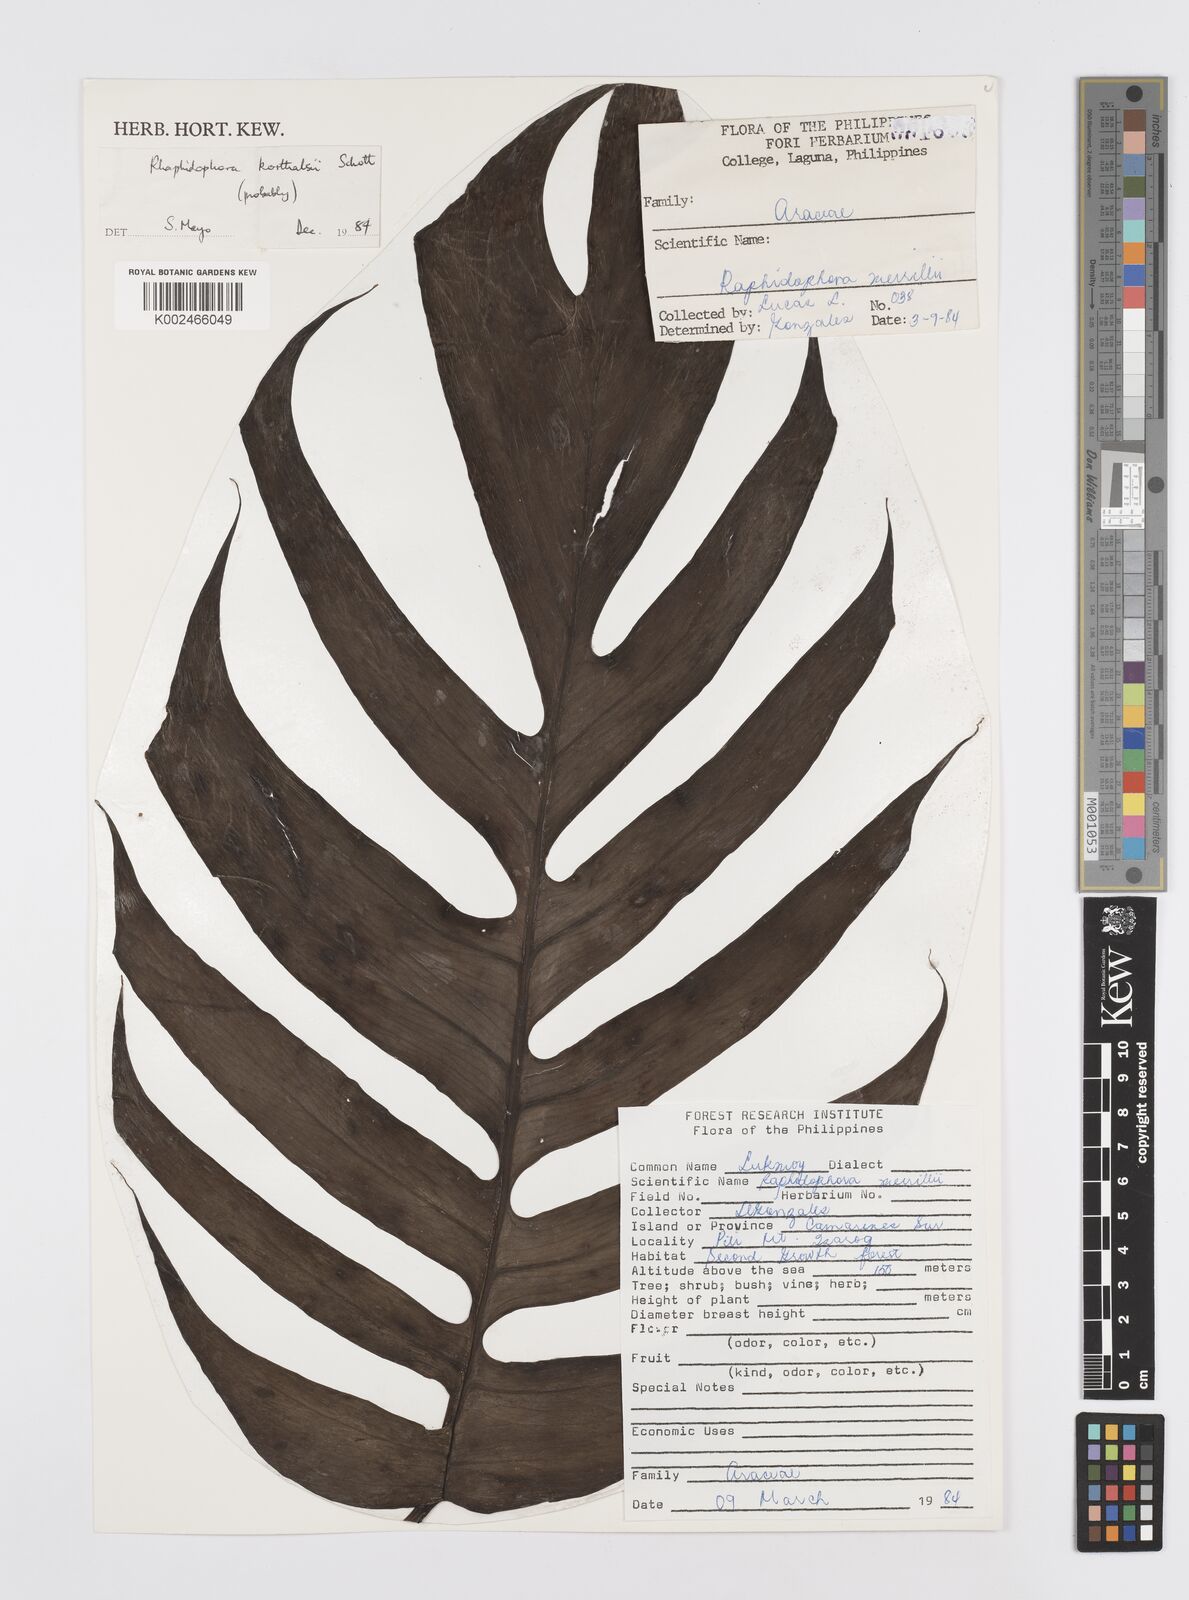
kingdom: Plantae
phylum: Tracheophyta
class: Liliopsida
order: Alismatales
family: Araceae
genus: Rhaphidophora
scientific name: Rhaphidophora korthalsii
